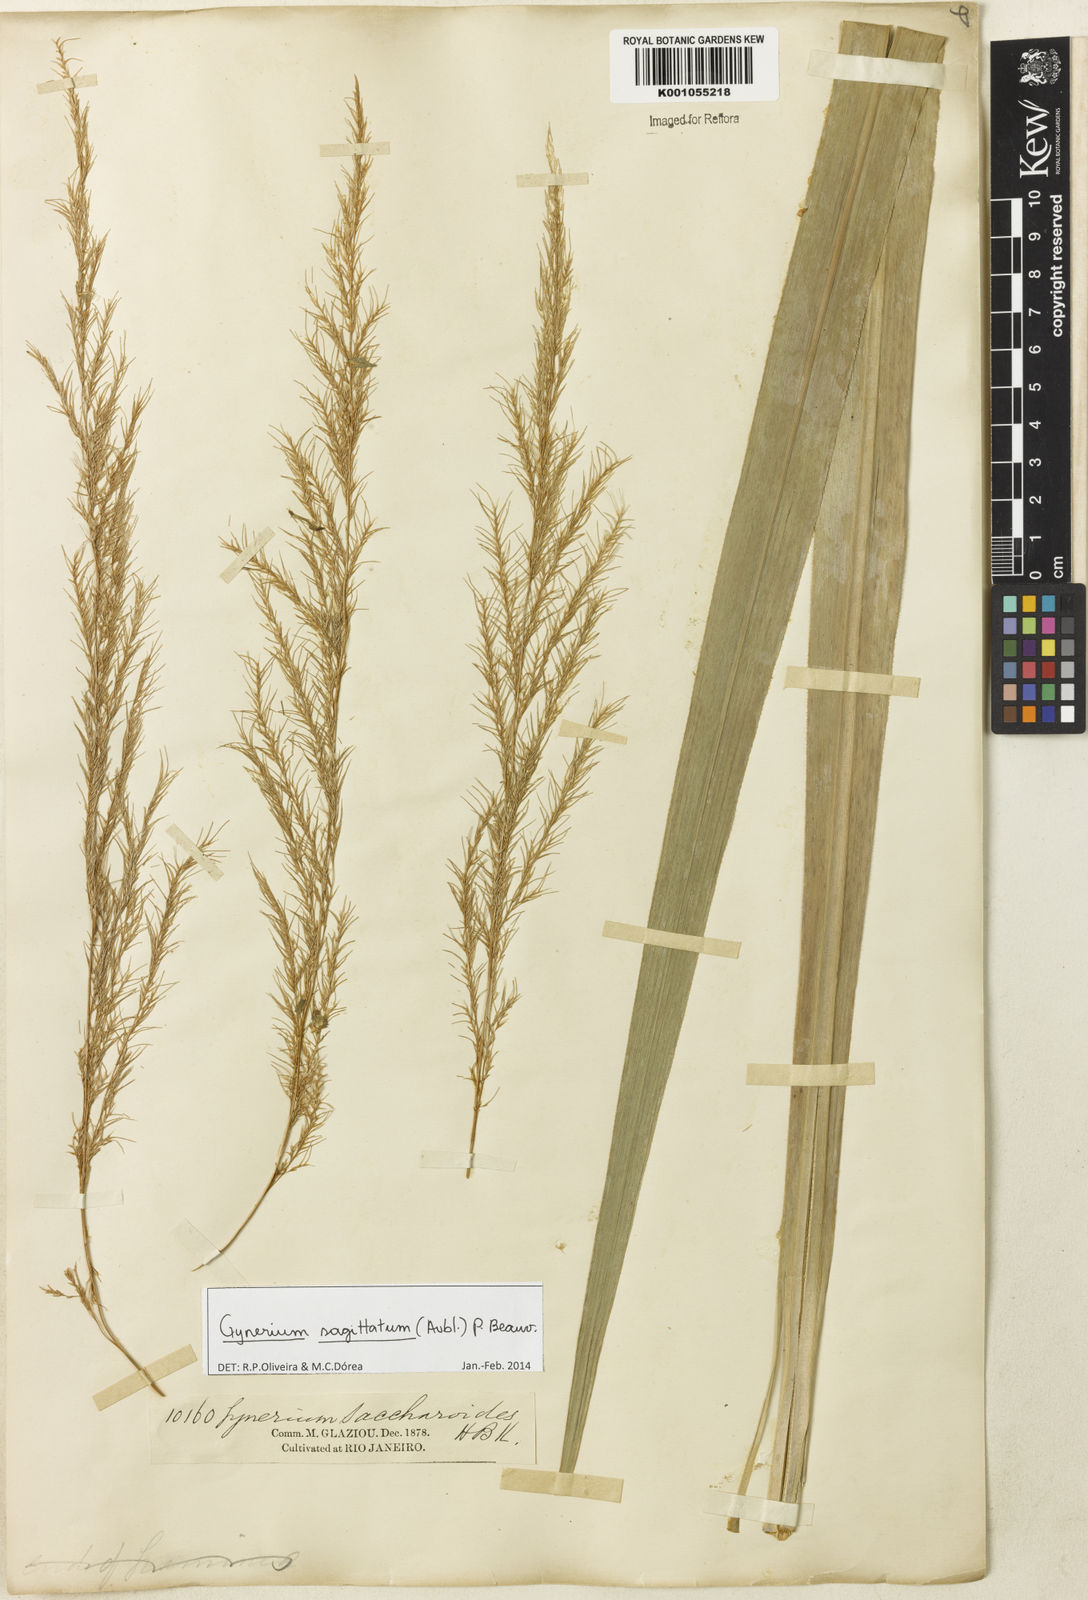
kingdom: Plantae
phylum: Tracheophyta
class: Liliopsida
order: Poales
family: Poaceae
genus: Gynerium
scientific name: Gynerium sagittatum
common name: Wild cane
